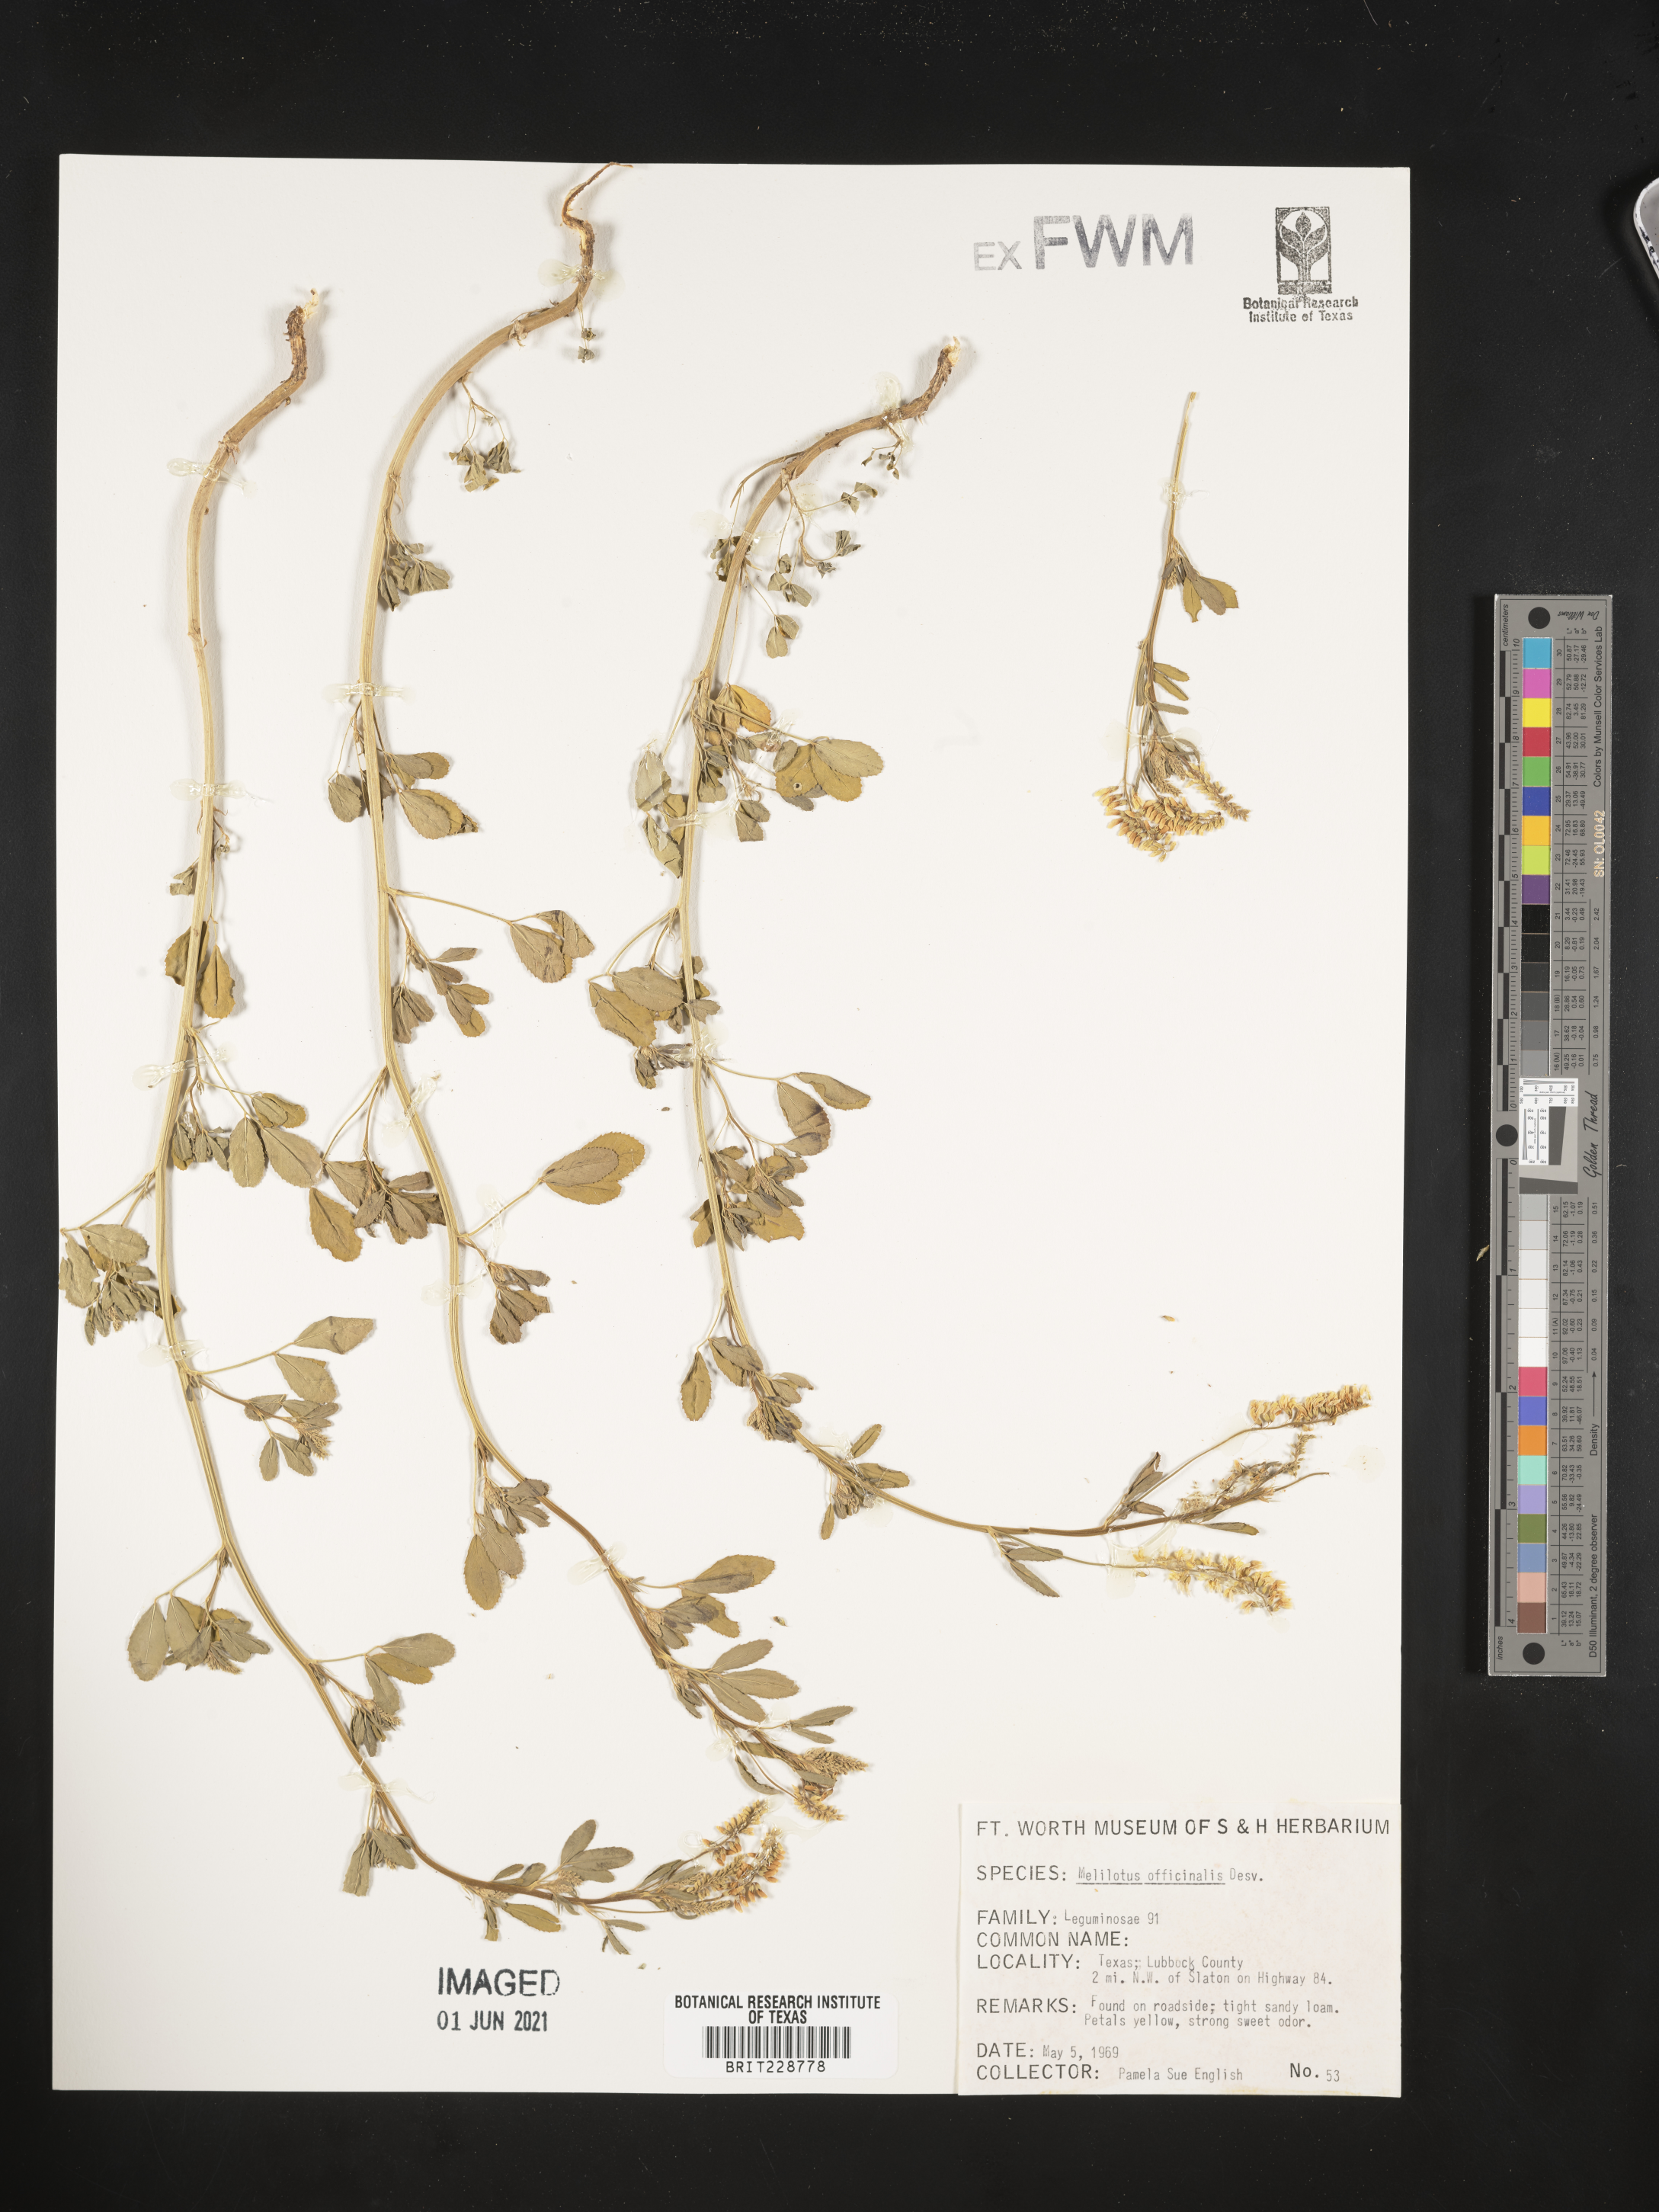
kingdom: Plantae
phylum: Tracheophyta
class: Magnoliopsida
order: Fabales
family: Fabaceae
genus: Melilotus
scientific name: Melilotus officinalis
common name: Sweetclover
